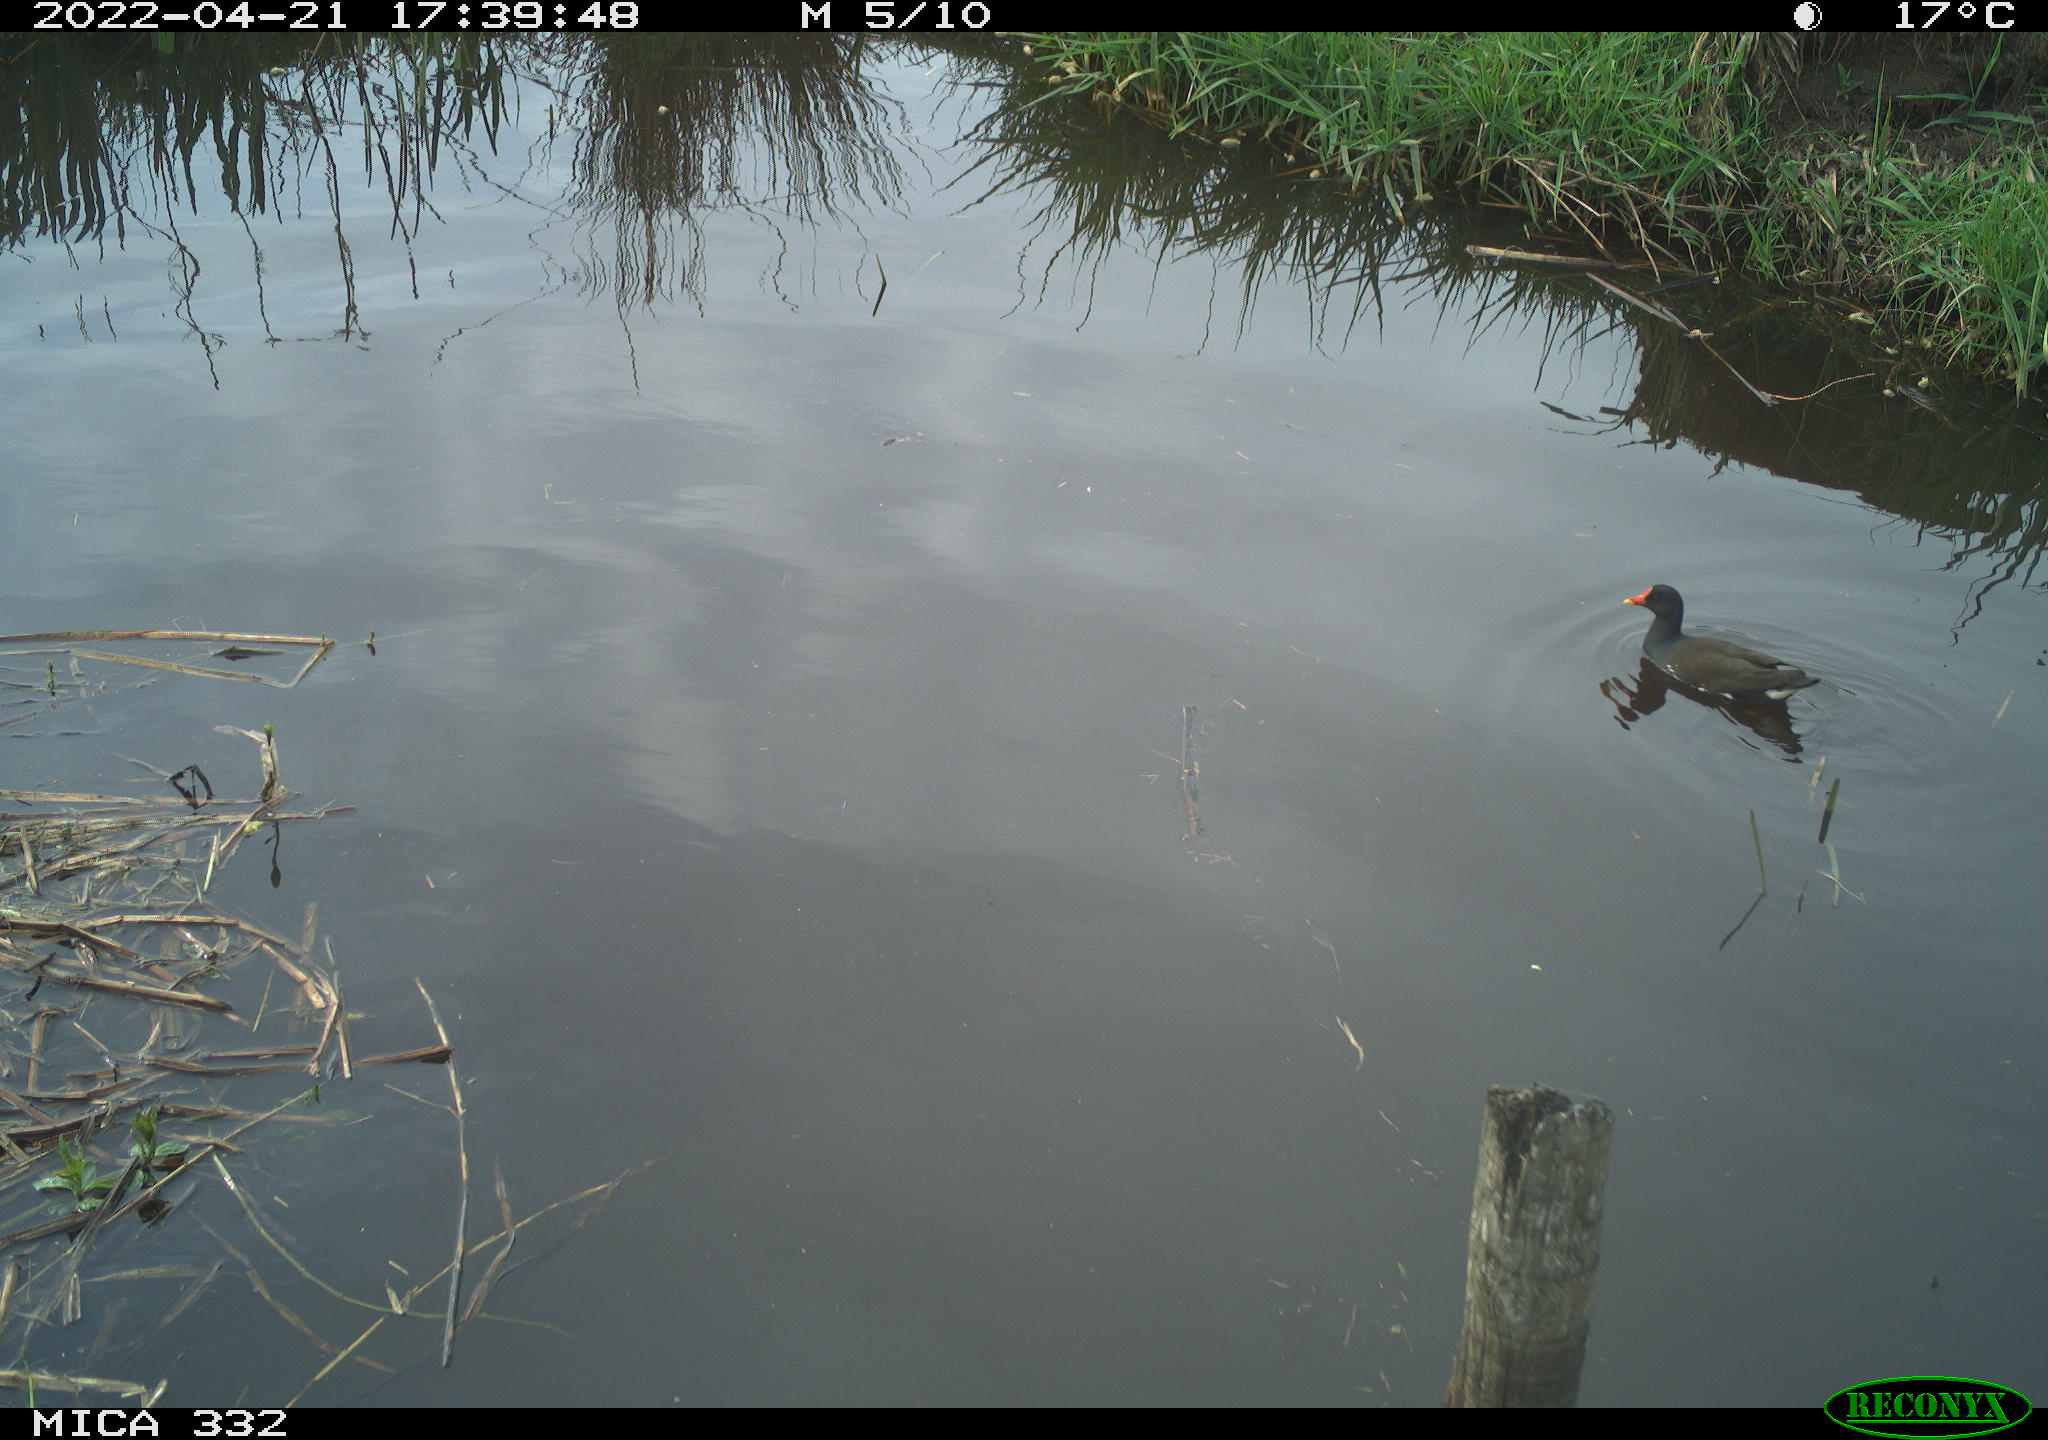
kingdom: Animalia
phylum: Chordata
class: Aves
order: Gruiformes
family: Rallidae
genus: Gallinula
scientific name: Gallinula chloropus
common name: Common moorhen
